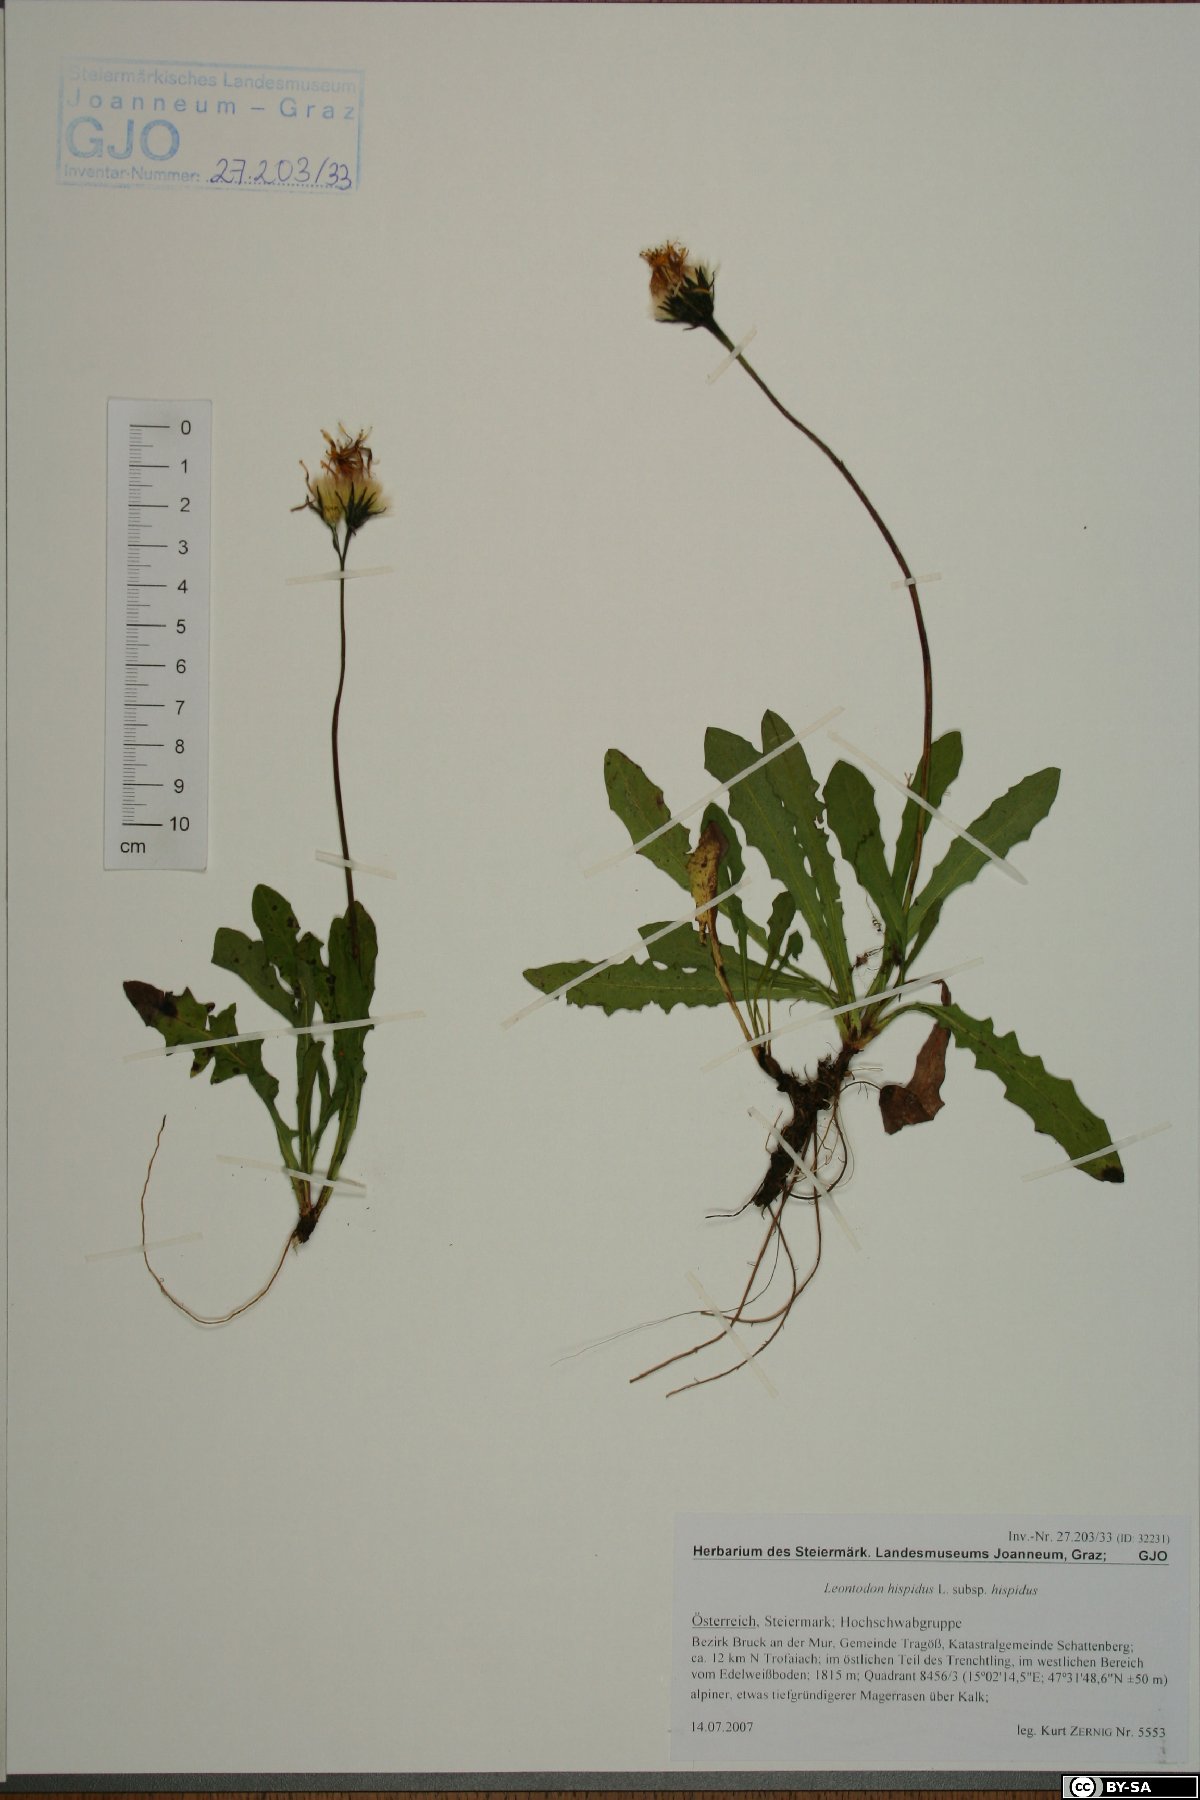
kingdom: Plantae
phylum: Tracheophyta
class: Magnoliopsida
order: Asterales
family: Asteraceae
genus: Leontodon
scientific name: Leontodon hispidus
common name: Rough hawkbit
